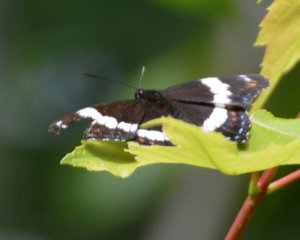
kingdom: Animalia
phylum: Arthropoda
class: Insecta
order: Lepidoptera
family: Nymphalidae
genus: Limenitis
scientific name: Limenitis arthemis
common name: Red-spotted Admiral
